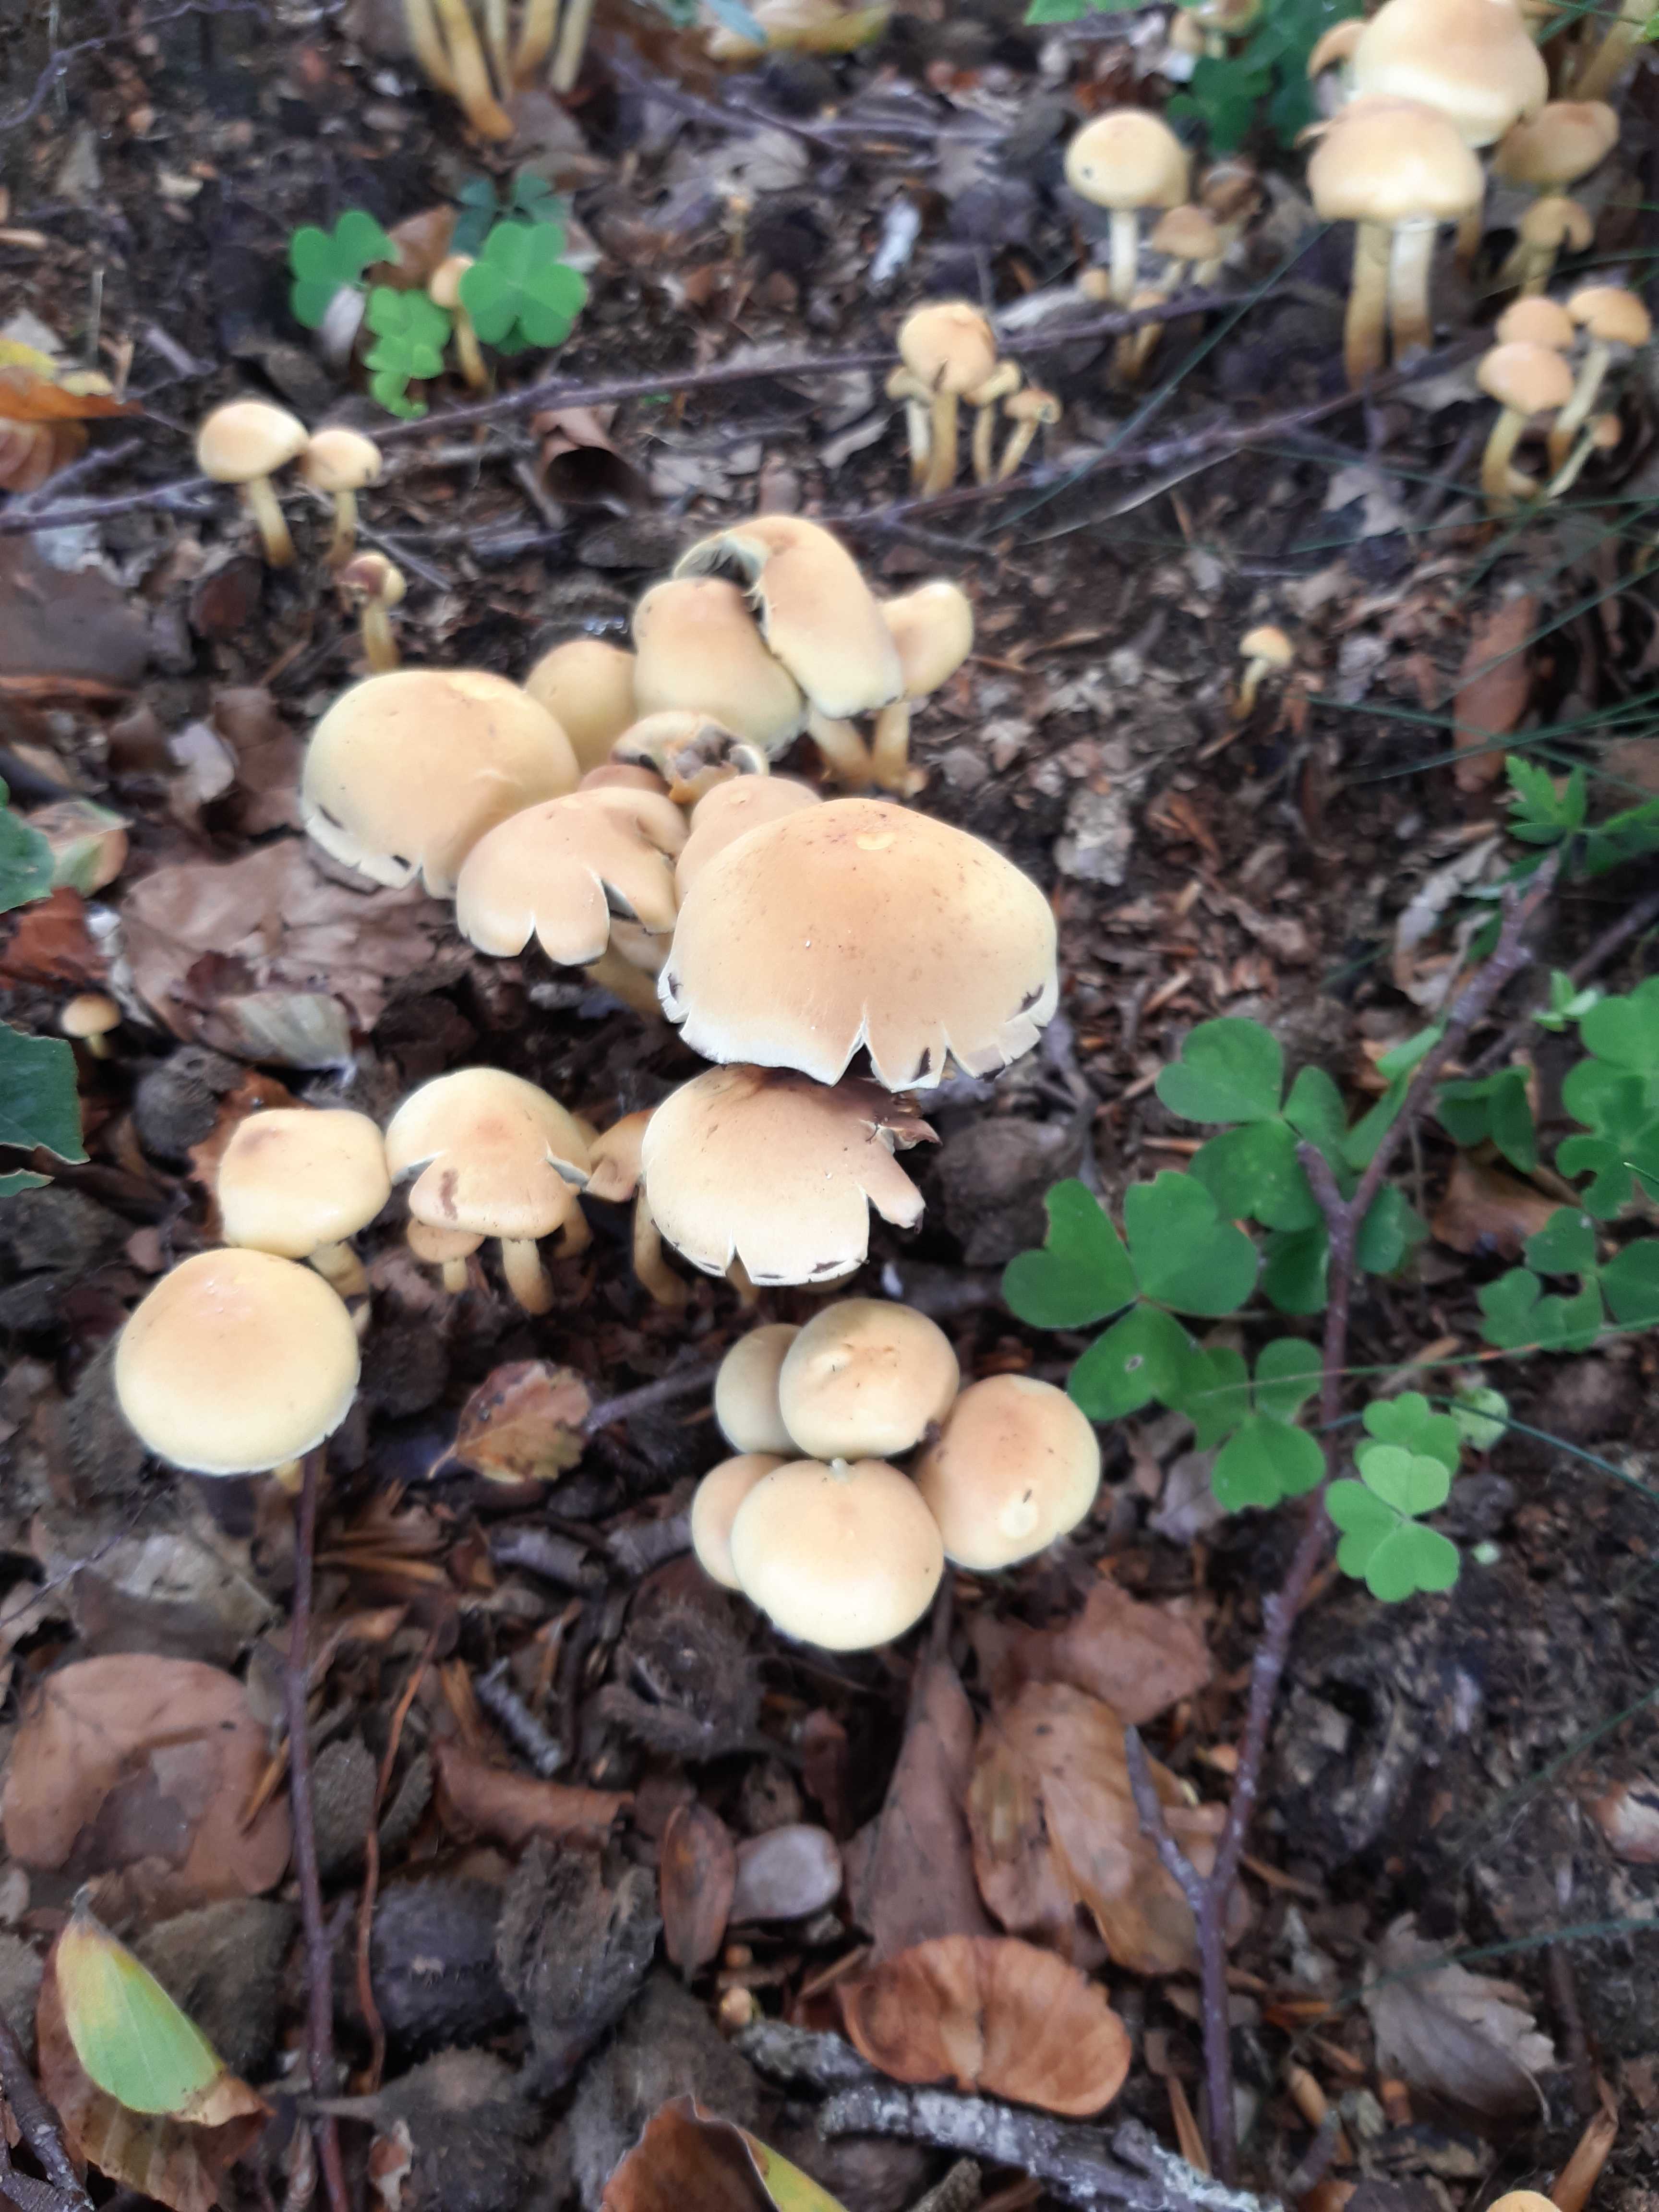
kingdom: Fungi
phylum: Basidiomycota
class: Agaricomycetes
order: Agaricales
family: Strophariaceae
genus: Hypholoma
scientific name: Hypholoma fasciculare
